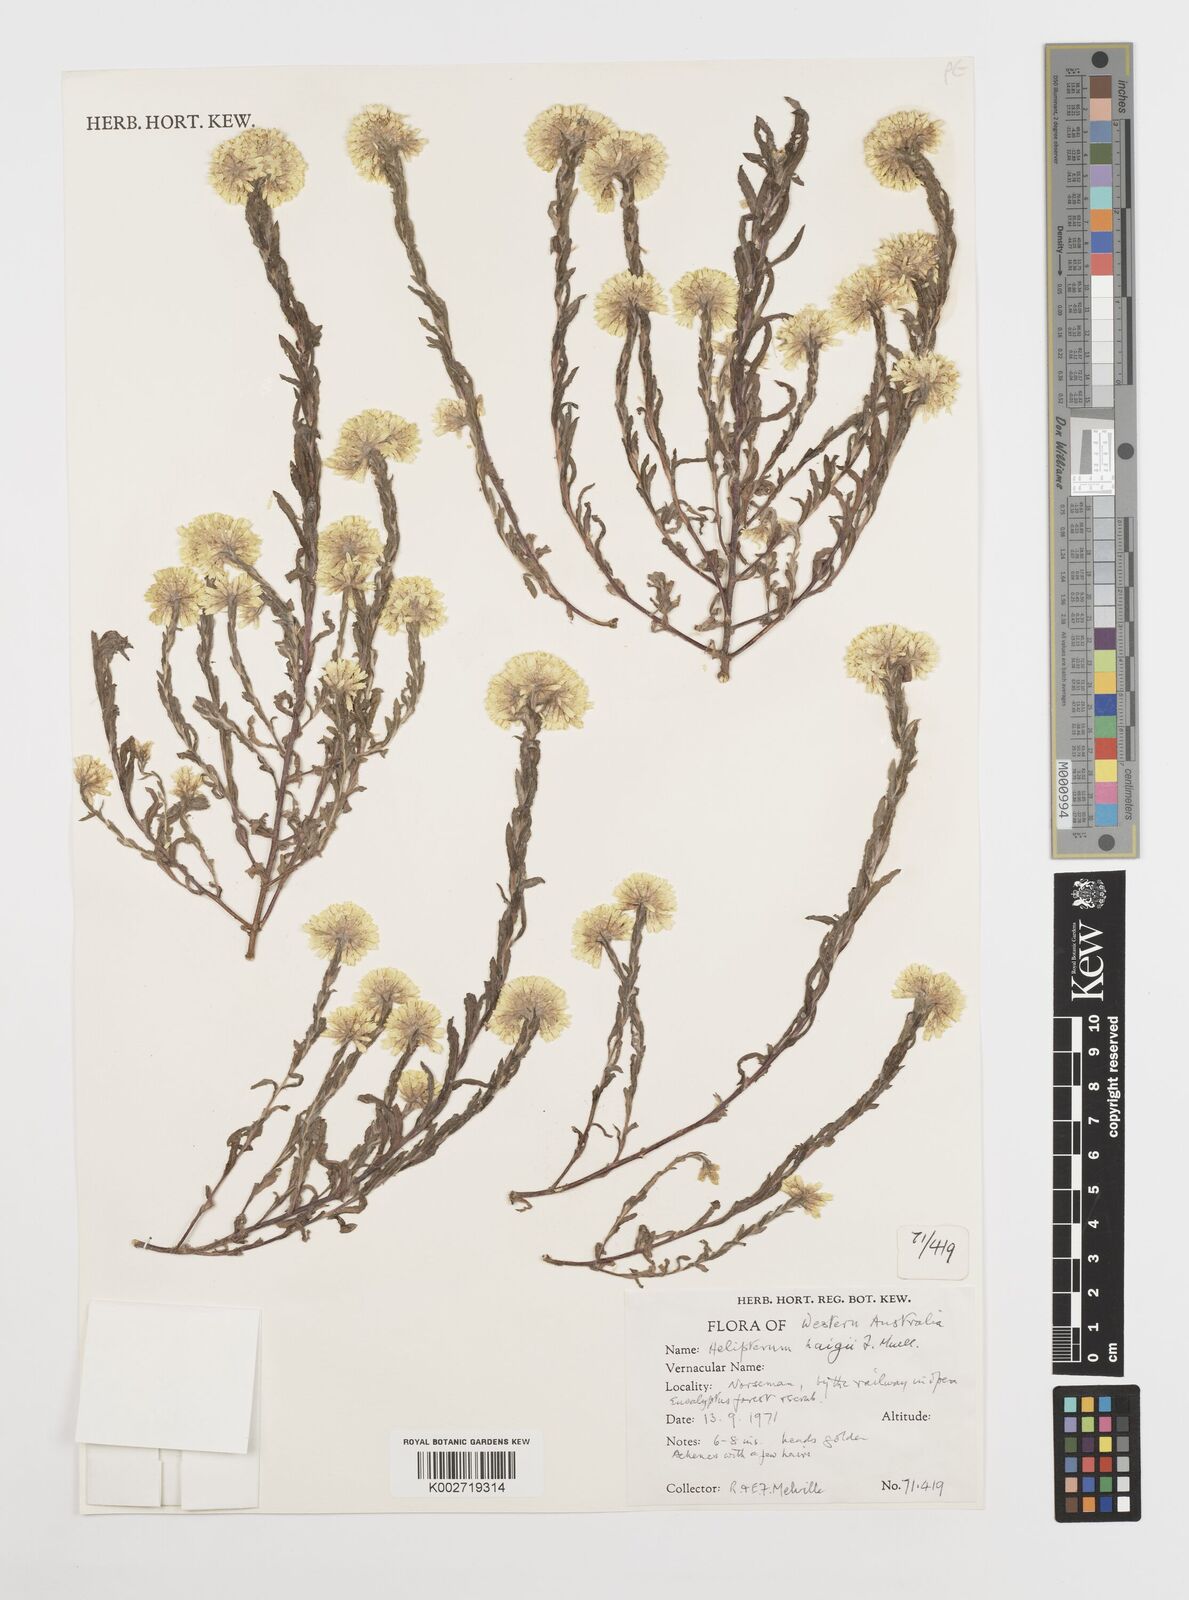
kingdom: Plantae
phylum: Tracheophyta
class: Magnoliopsida
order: Asterales
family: Asteraceae
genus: Rhodanthe
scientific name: Rhodanthe haigii
